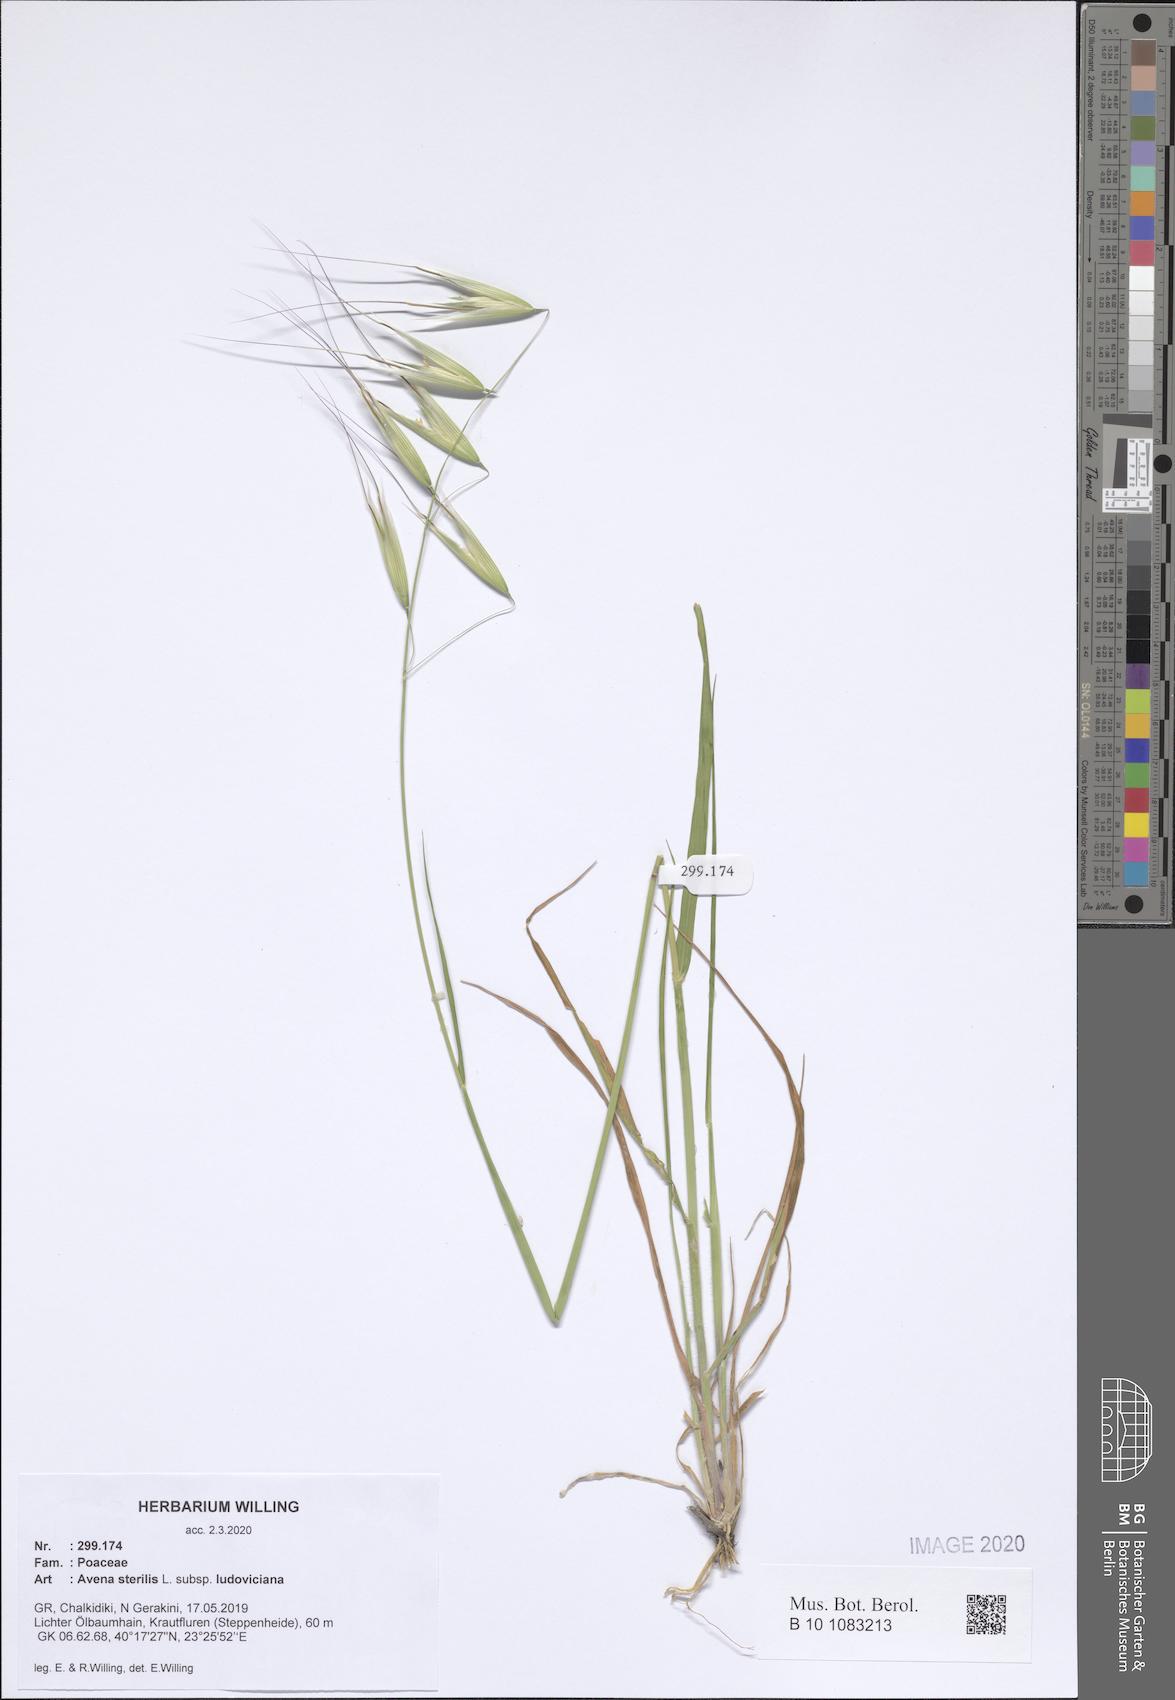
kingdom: Plantae
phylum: Tracheophyta
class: Liliopsida
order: Poales
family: Poaceae
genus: Avena
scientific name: Avena sterilis
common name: Animated oat
